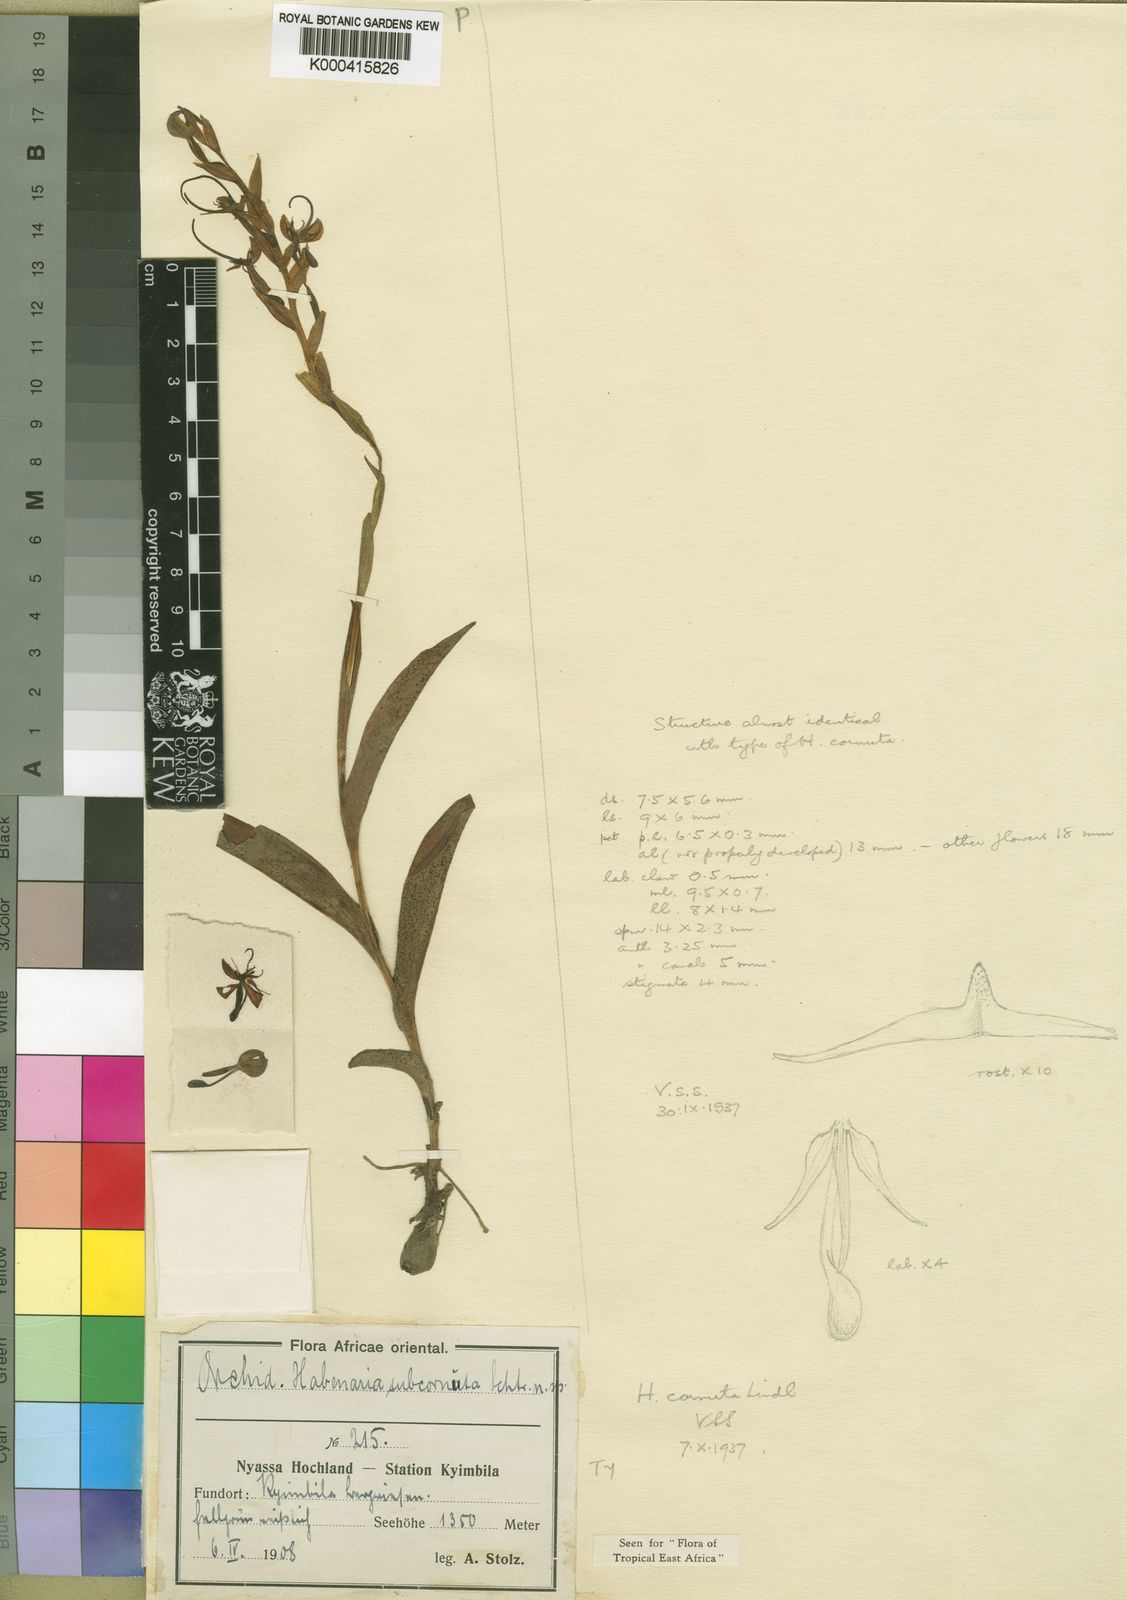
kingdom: Plantae
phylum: Tracheophyta
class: Liliopsida
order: Asparagales
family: Orchidaceae
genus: Habenaria
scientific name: Habenaria cornuta
